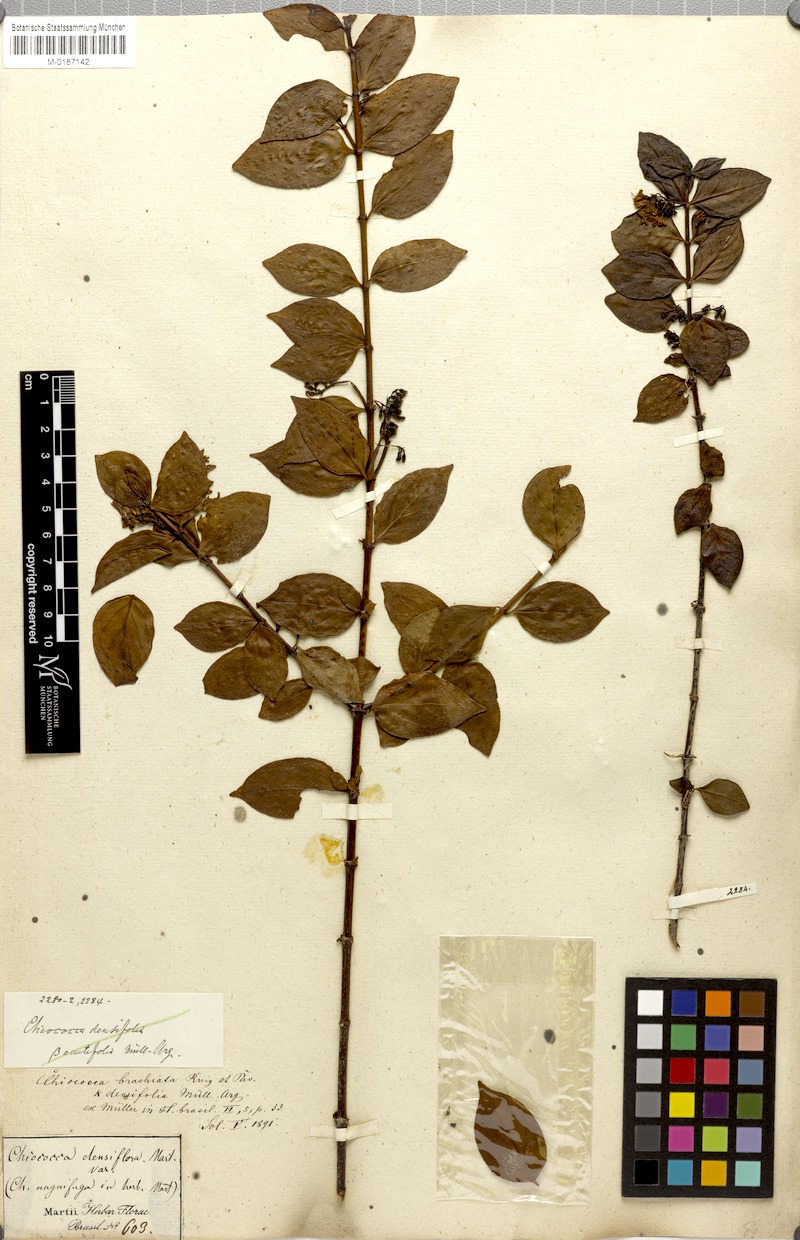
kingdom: Plantae
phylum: Tracheophyta
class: Magnoliopsida
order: Gentianales
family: Rubiaceae
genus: Chiococca
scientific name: Chiococca alba
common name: Snowberry
